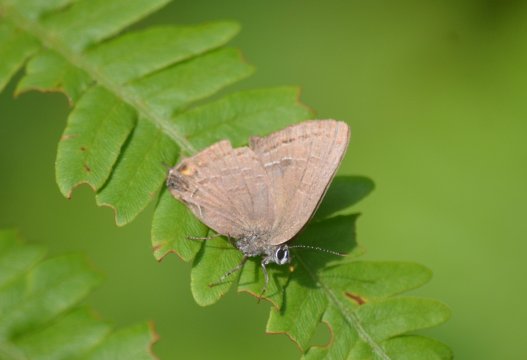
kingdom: Animalia
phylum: Arthropoda
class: Insecta
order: Lepidoptera
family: Lycaenidae
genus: Satyrium
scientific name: Satyrium calanus
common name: Banded Hairstreak
